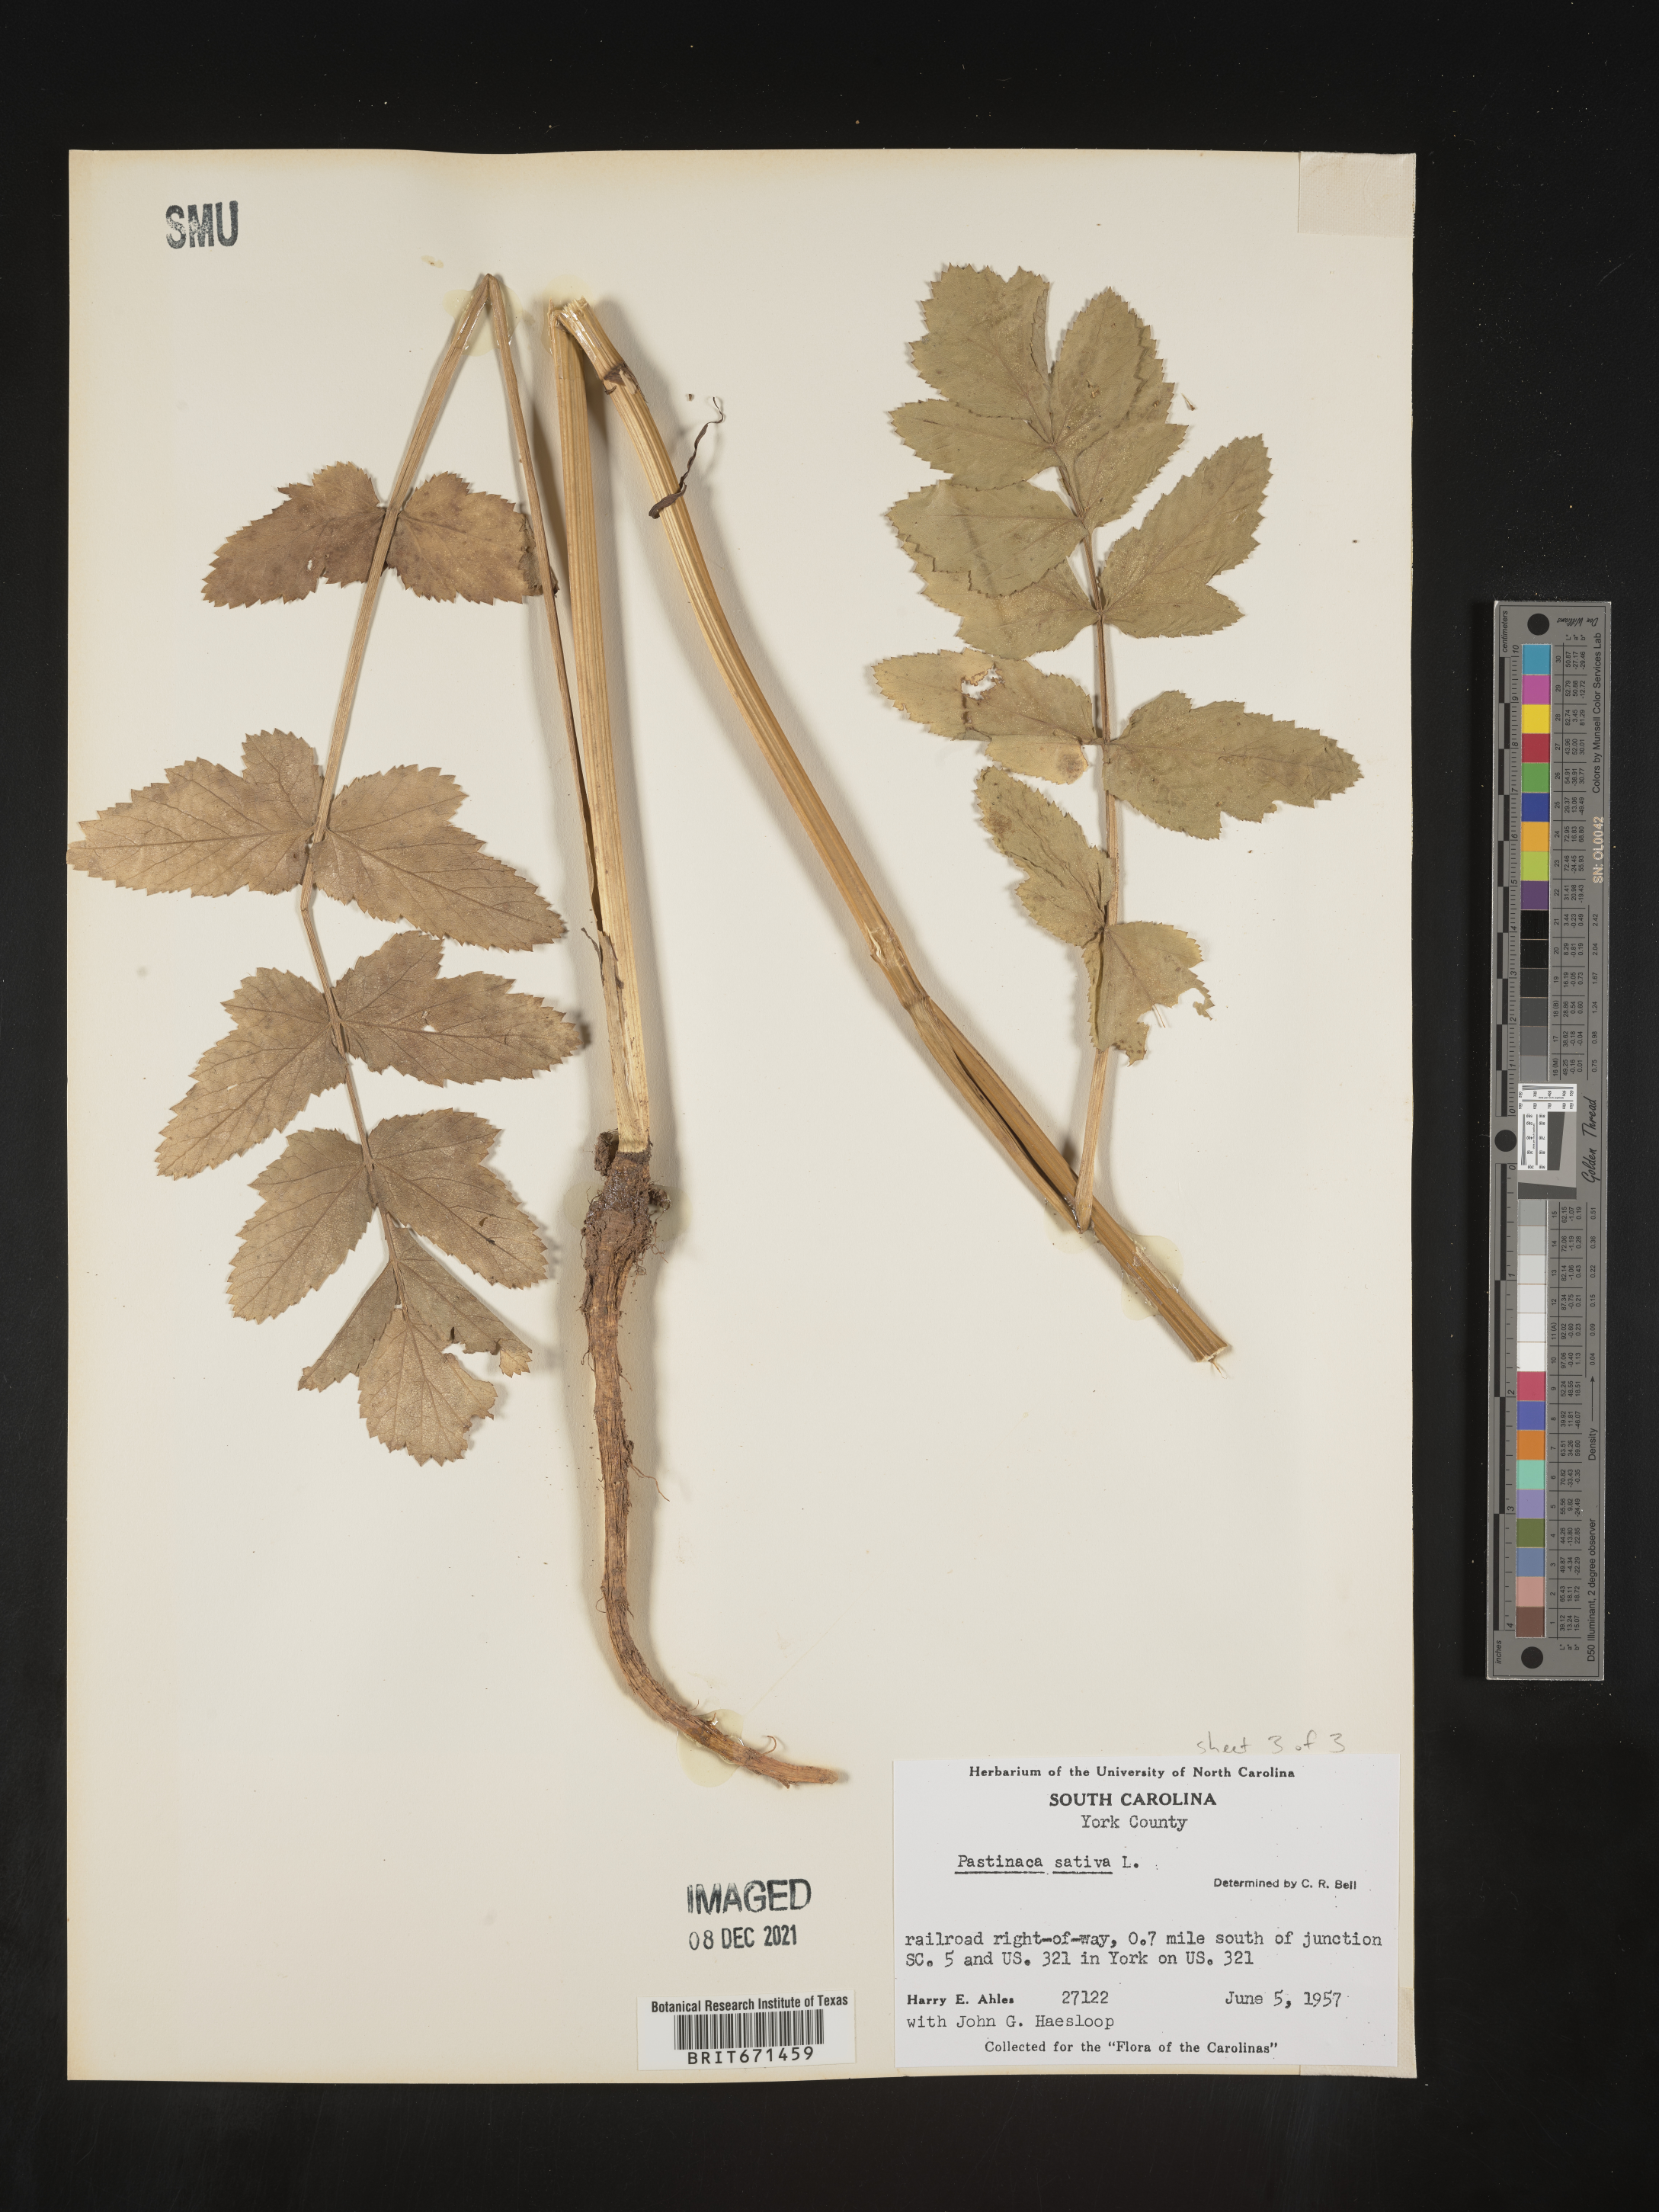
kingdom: Plantae
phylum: Tracheophyta
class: Magnoliopsida
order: Apiales
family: Apiaceae
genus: Pastinaca
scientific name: Pastinaca
